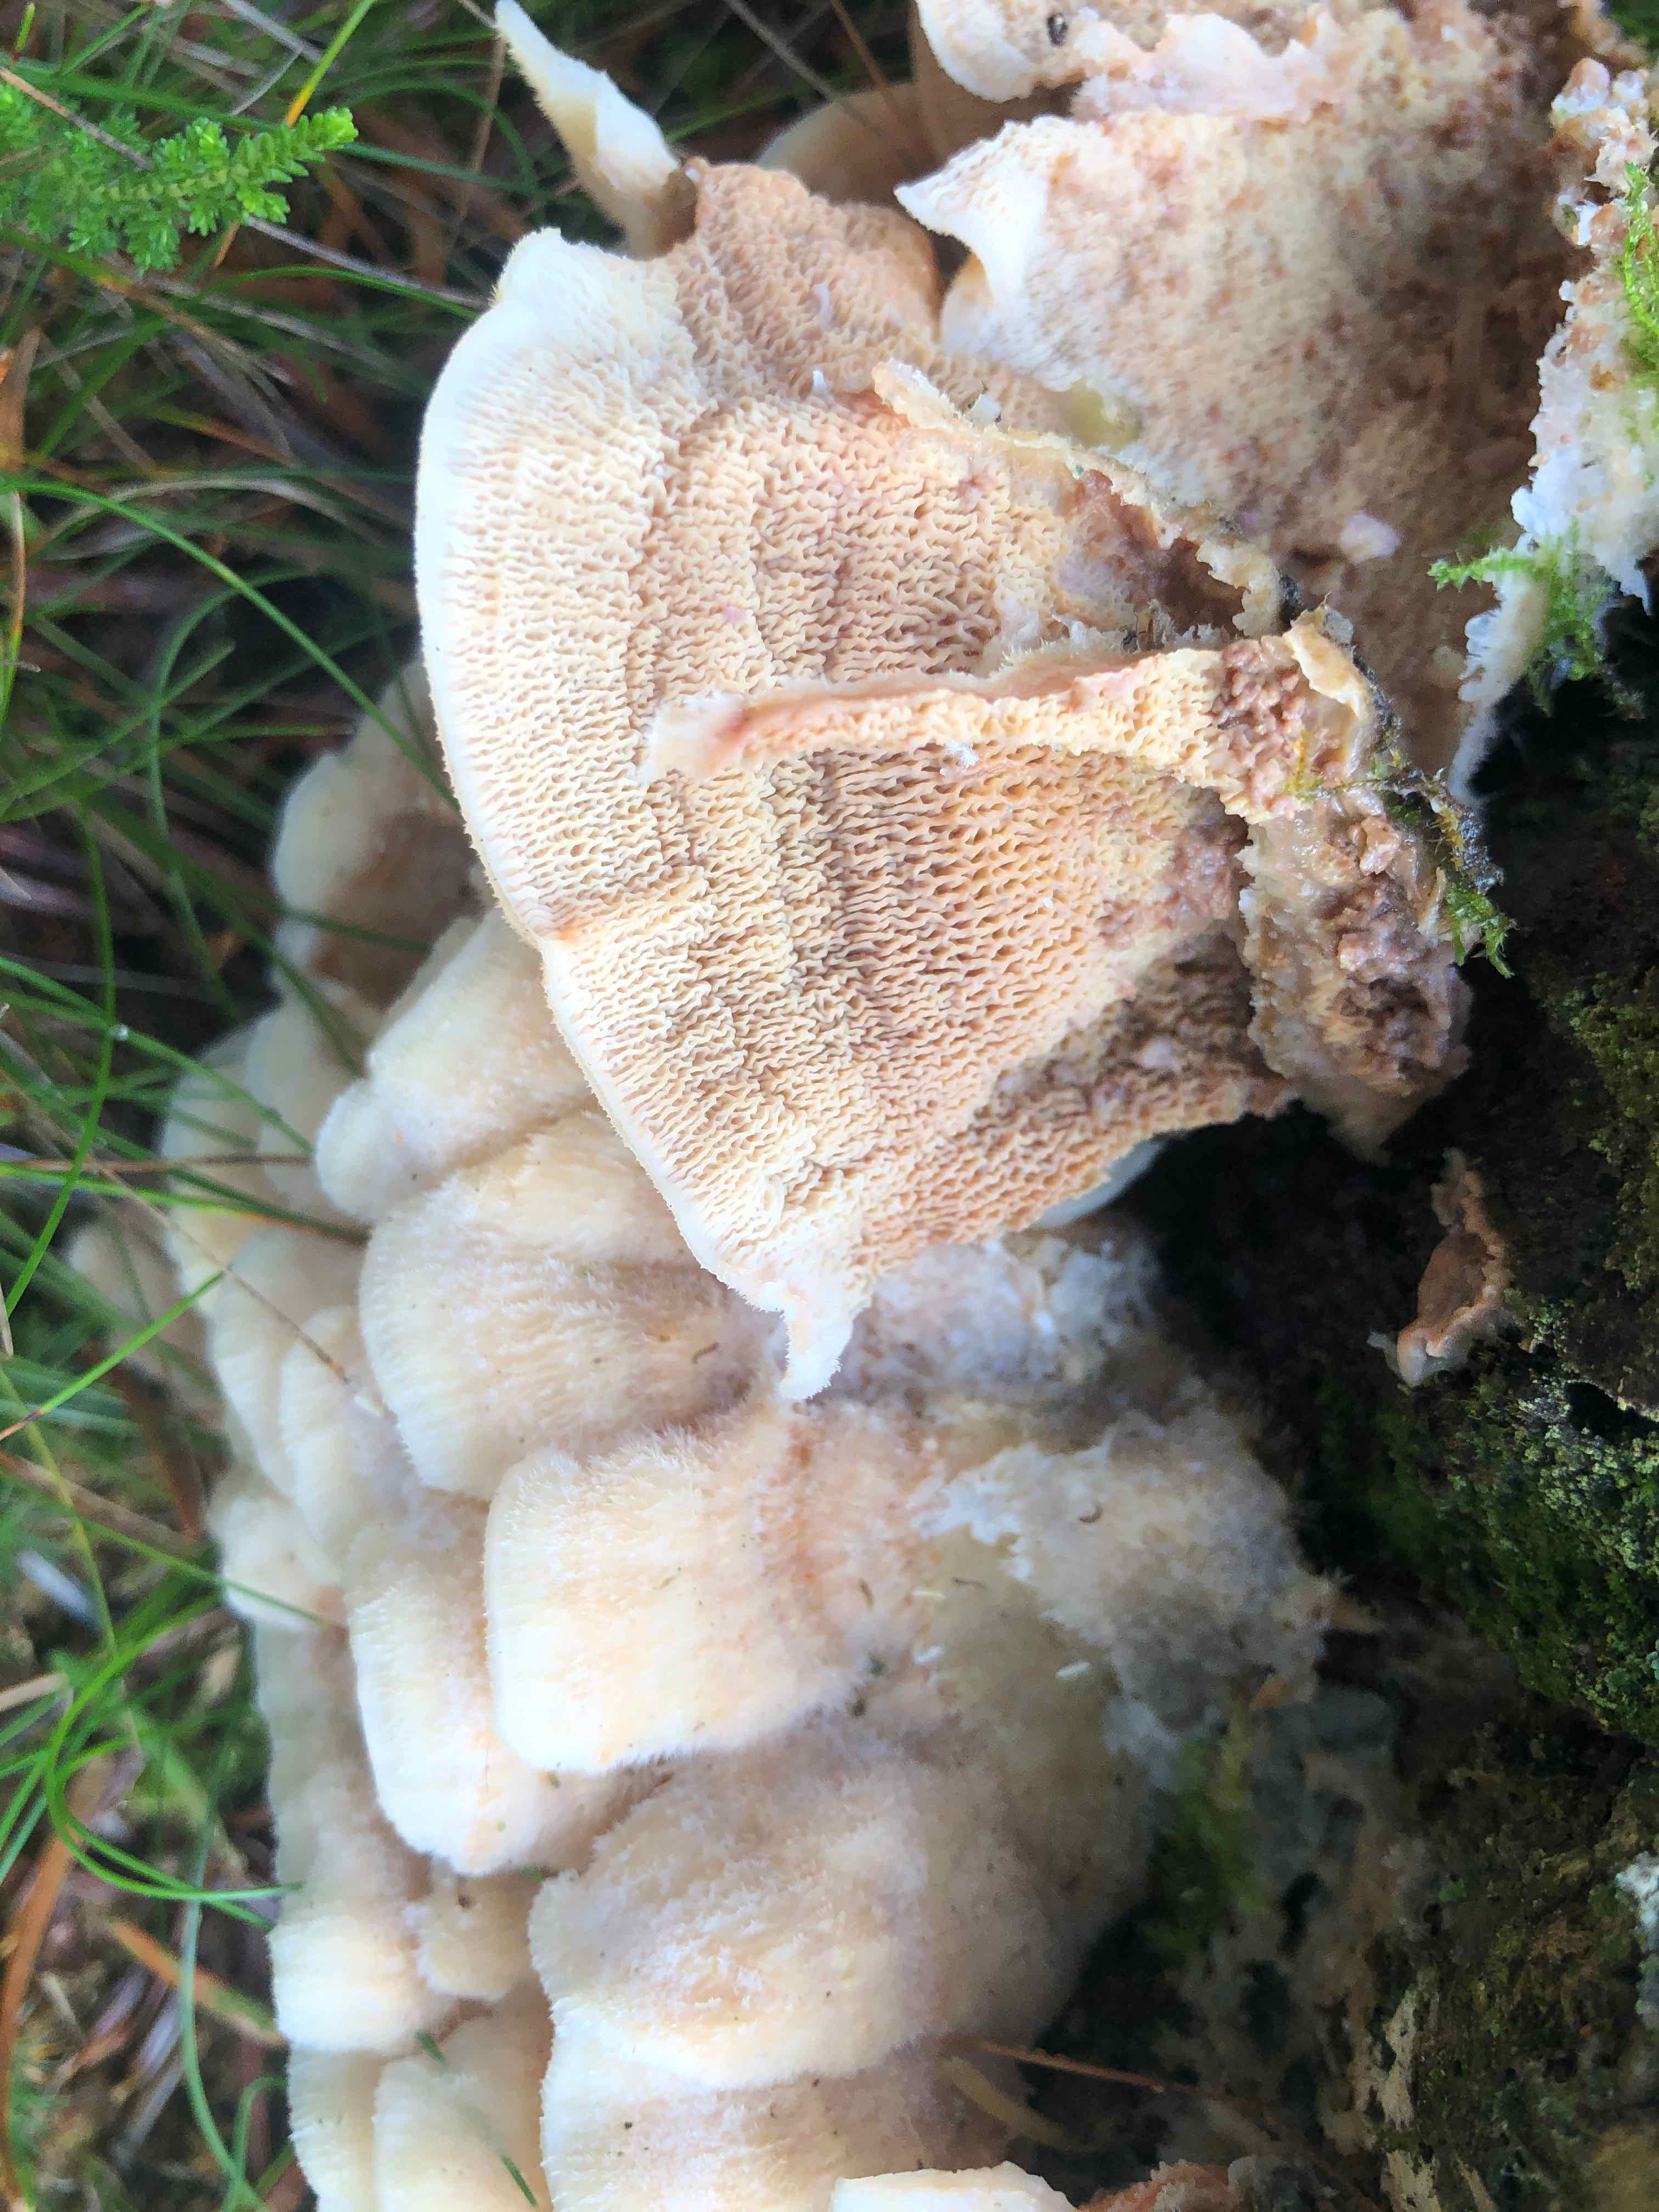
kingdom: Fungi
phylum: Basidiomycota
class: Agaricomycetes
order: Polyporales
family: Meruliaceae
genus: Phlebia
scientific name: Phlebia tremellosa
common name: bævrende åresvamp
